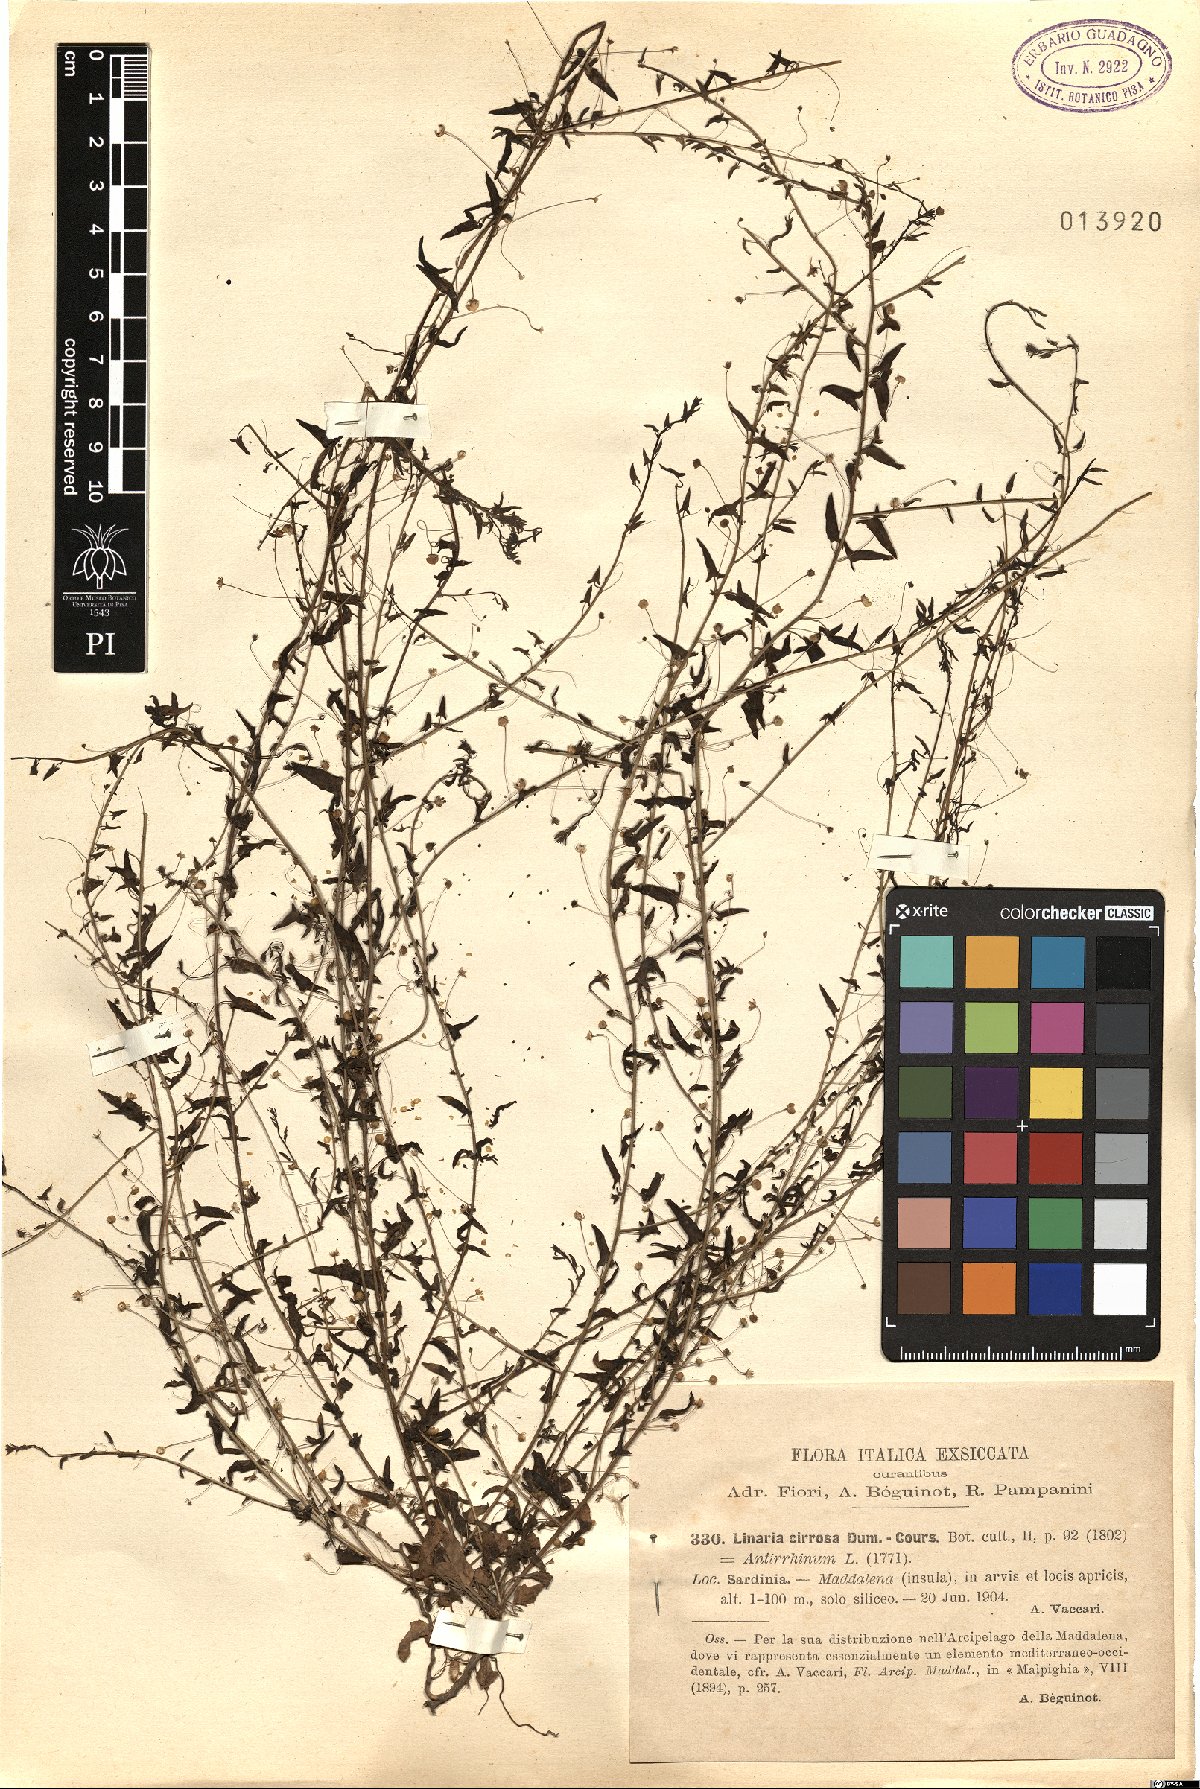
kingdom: Plantae
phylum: Tracheophyta
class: Magnoliopsida
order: Lamiales
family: Plantaginaceae
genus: Kickxia
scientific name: Kickxia cirrhosa
